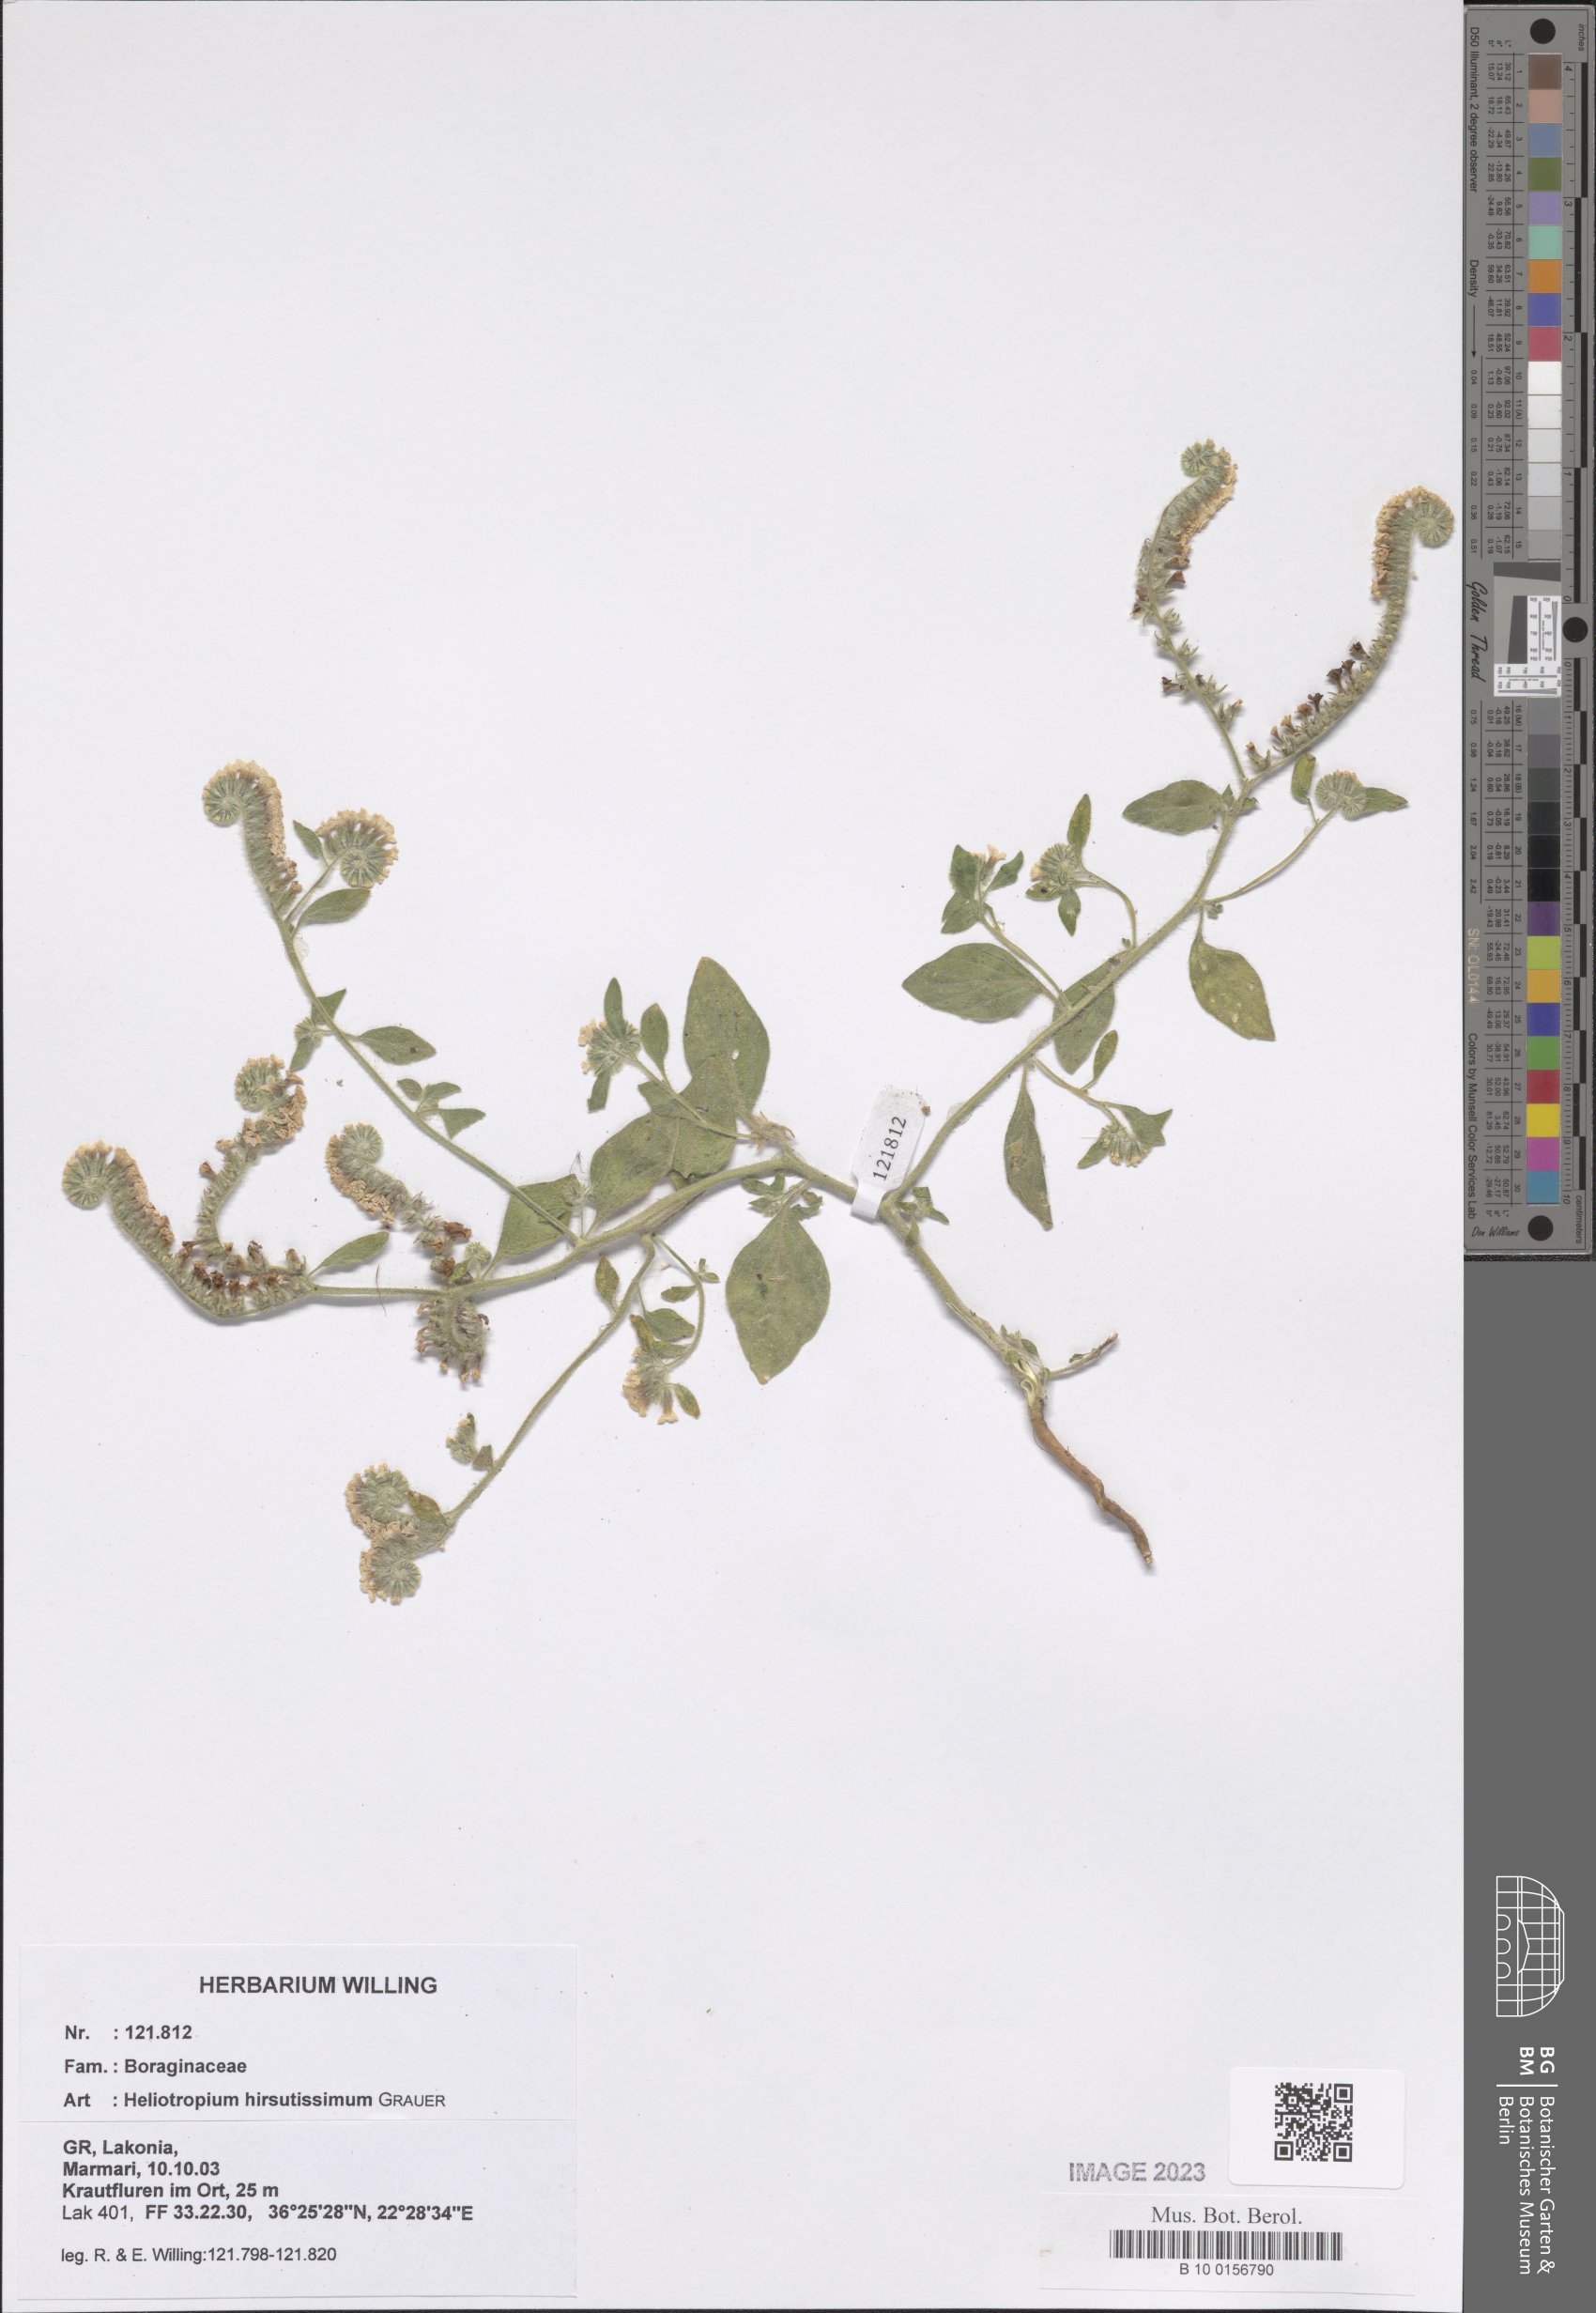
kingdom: Plantae
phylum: Tracheophyta
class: Magnoliopsida
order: Boraginales
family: Heliotropiaceae
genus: Heliotropium
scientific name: Heliotropium hirsutissimum
